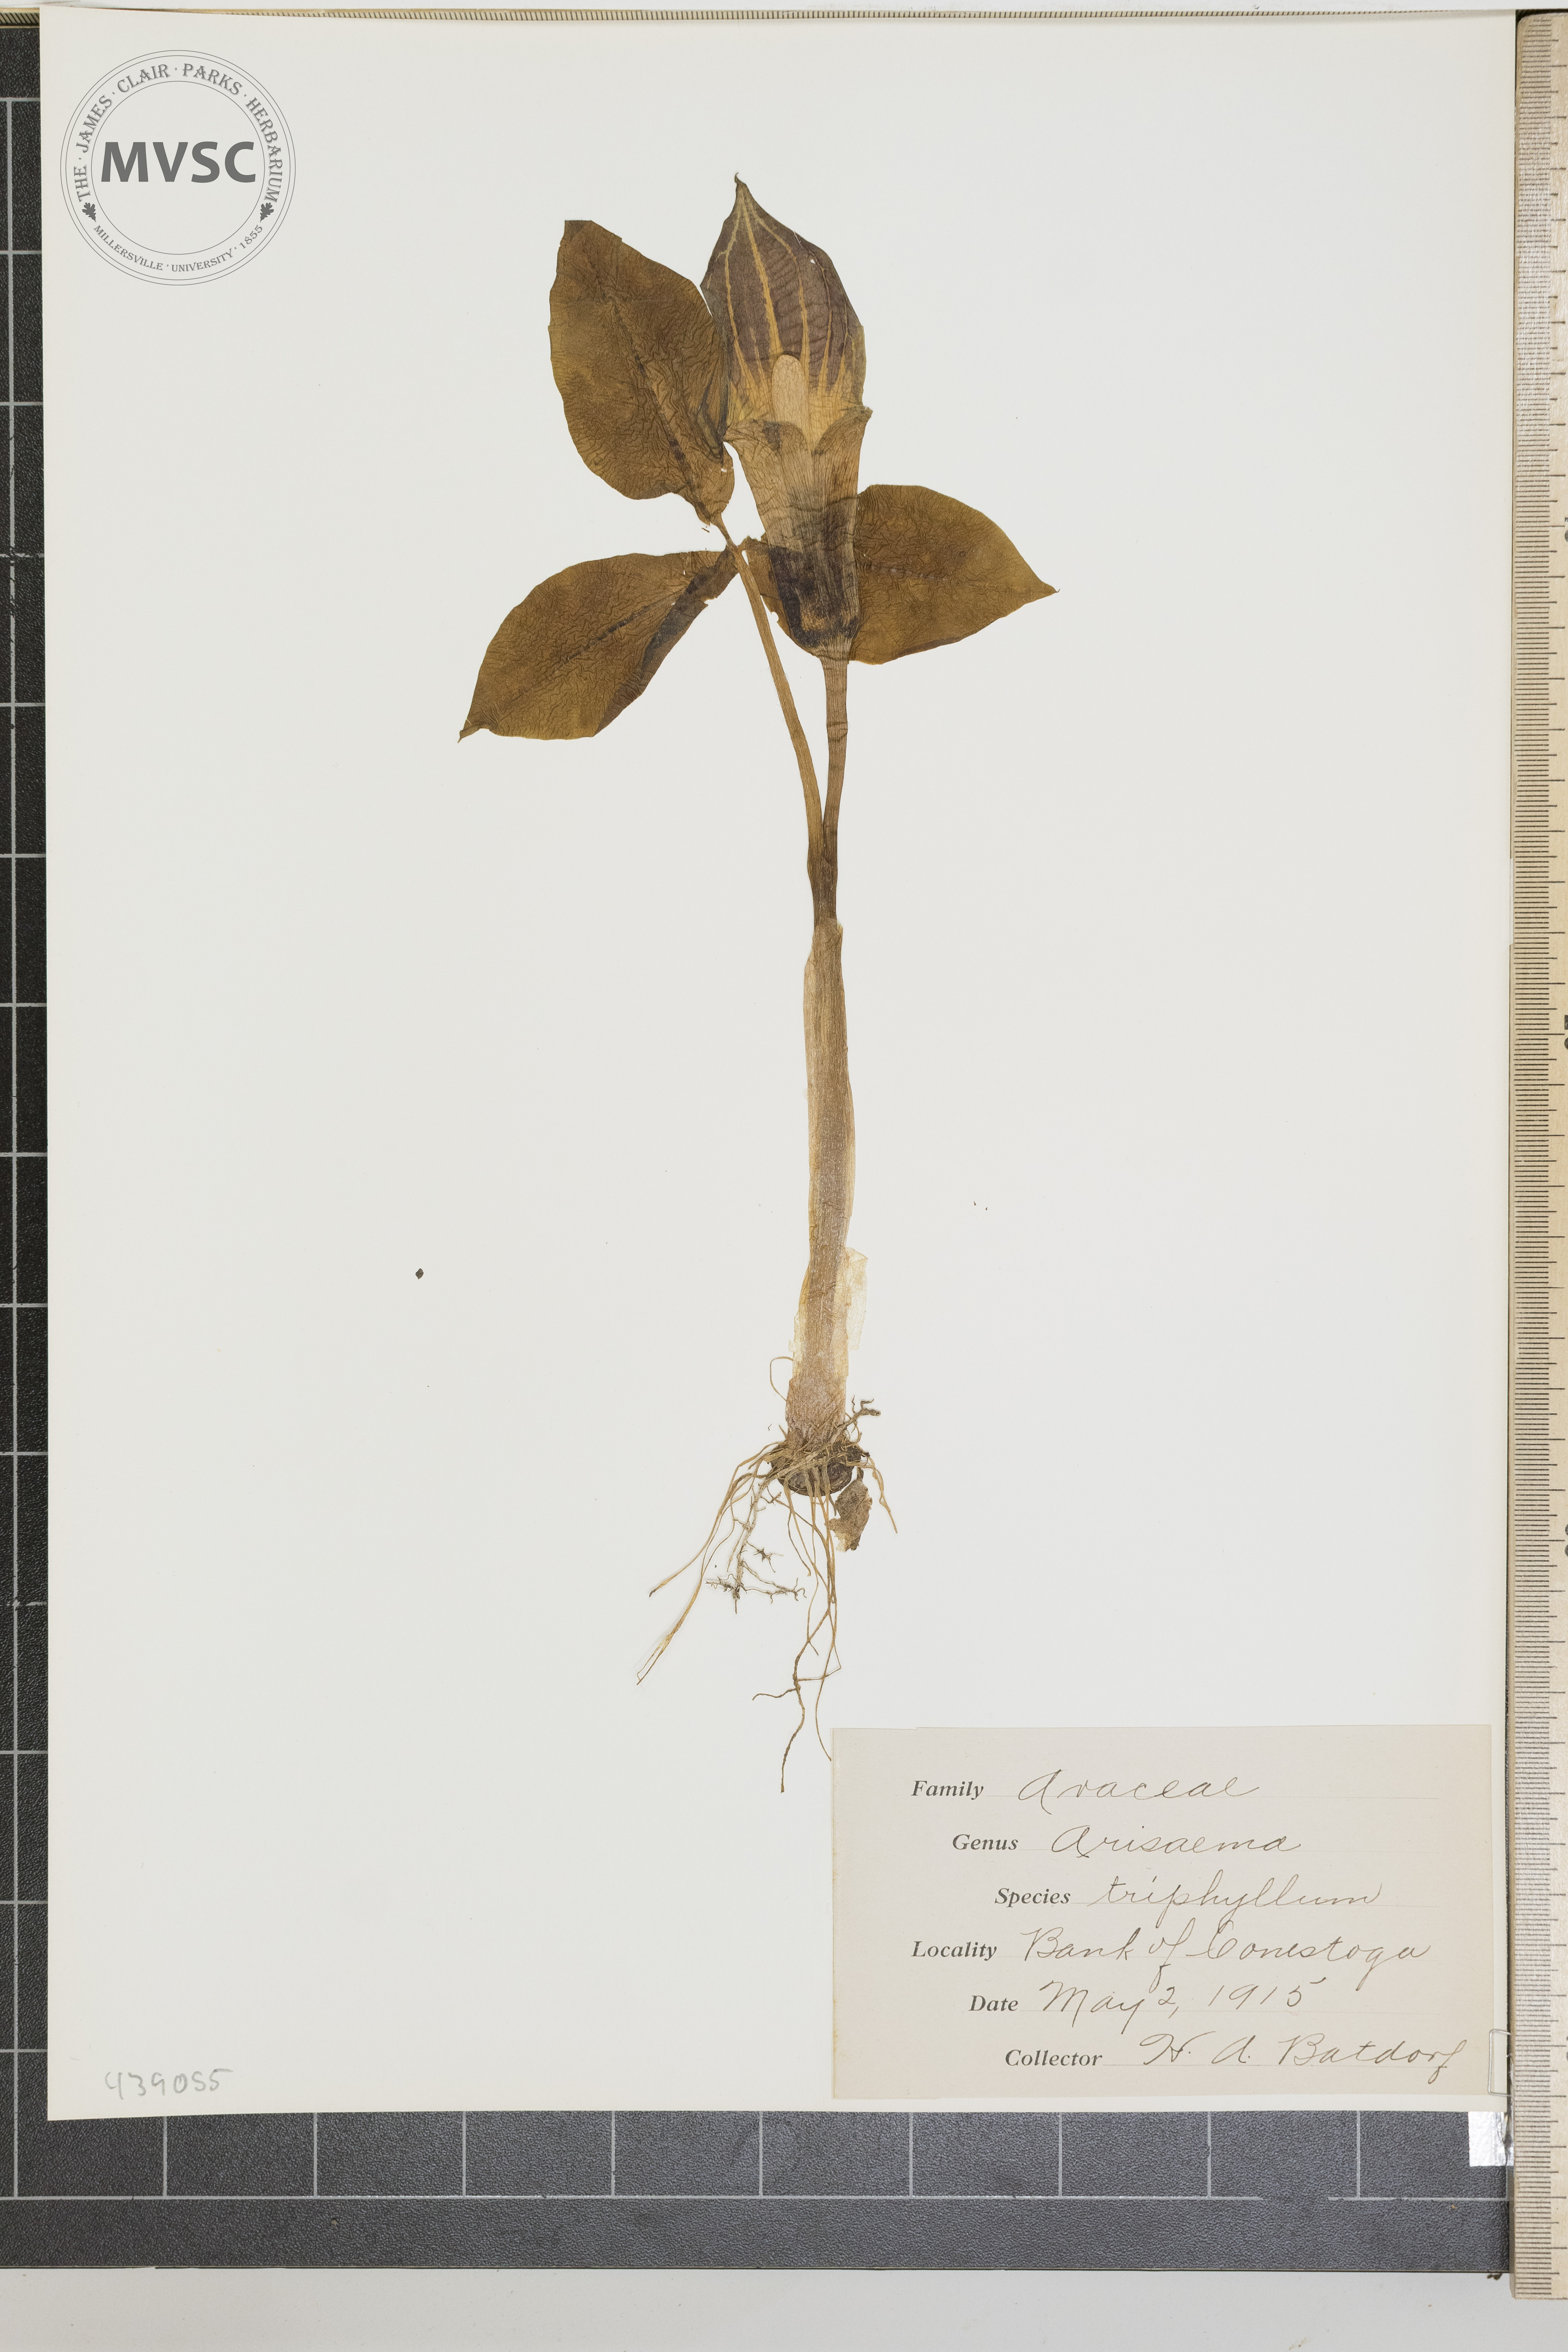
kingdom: Plantae
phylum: Tracheophyta
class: Liliopsida
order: Alismatales
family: Araceae
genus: Arisaema
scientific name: Arisaema triphyllum
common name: Jack-in-the-pulpit
